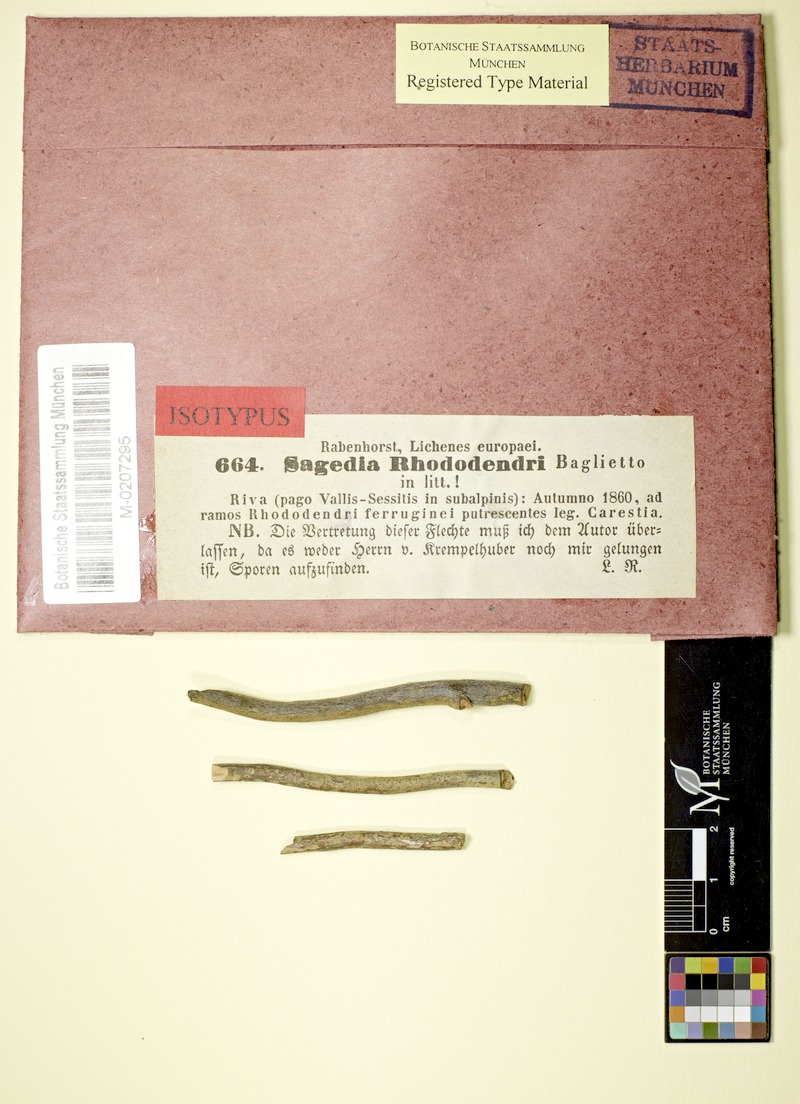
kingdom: Fungi
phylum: Ascomycota
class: Lecanoromycetes
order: Pertusariales
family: Pertusariaceae
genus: Porina
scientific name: Porina
